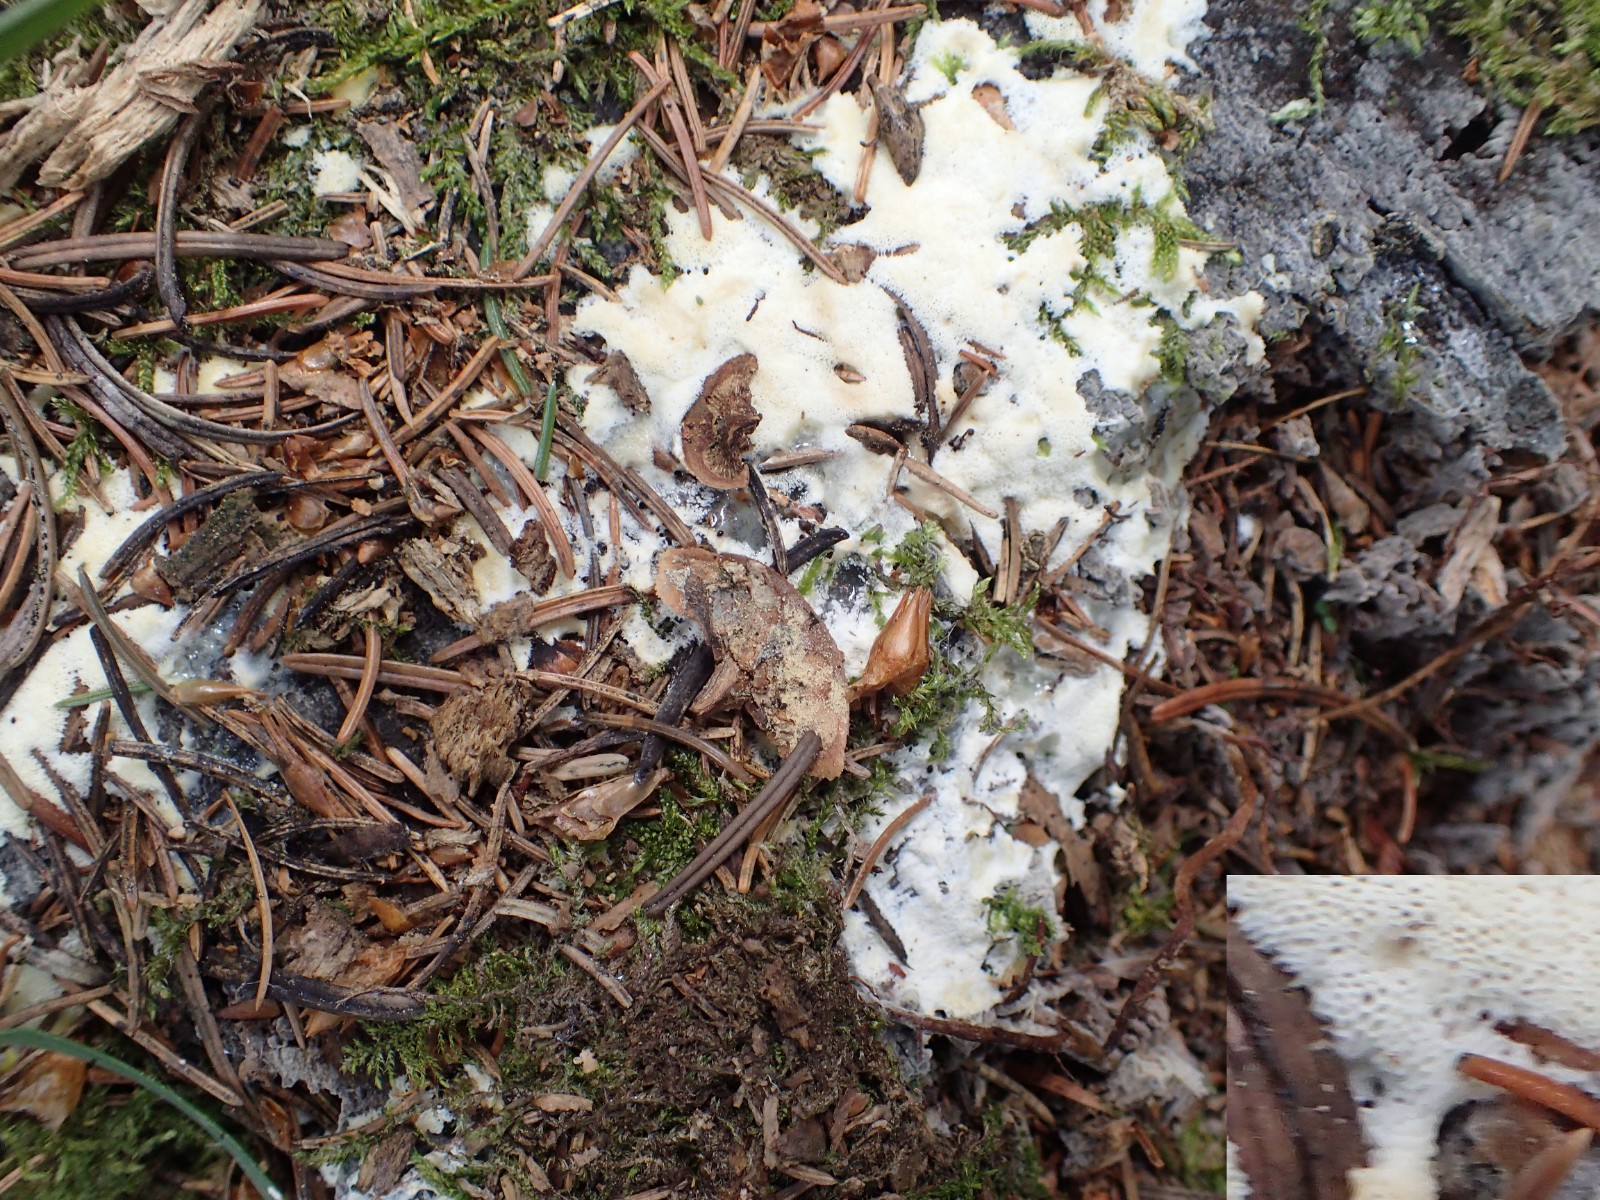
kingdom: Protozoa
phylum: Mycetozoa
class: Protosteliomycetes
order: Ceratiomyxales
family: Ceratiomyxaceae
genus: Ceratiomyxa
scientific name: Ceratiomyxa fruticulosa
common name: Honeycomb coral slime mold
